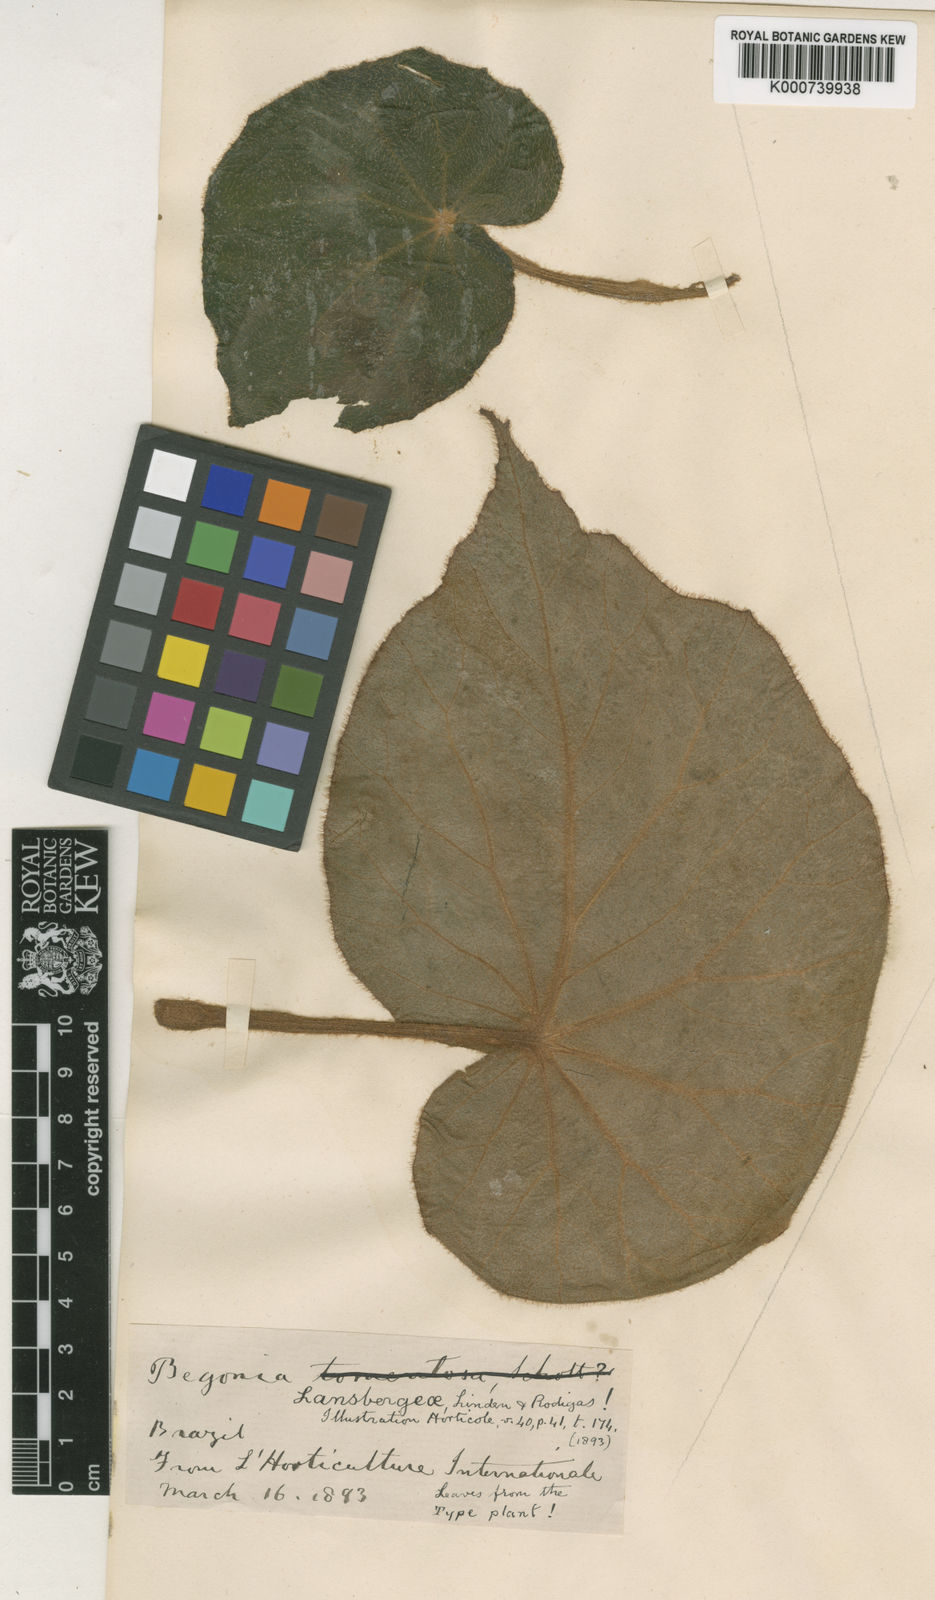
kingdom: Plantae
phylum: Tracheophyta
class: Magnoliopsida
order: Cucurbitales
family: Begoniaceae
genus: Begonia
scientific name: Begonia lansbergeae
